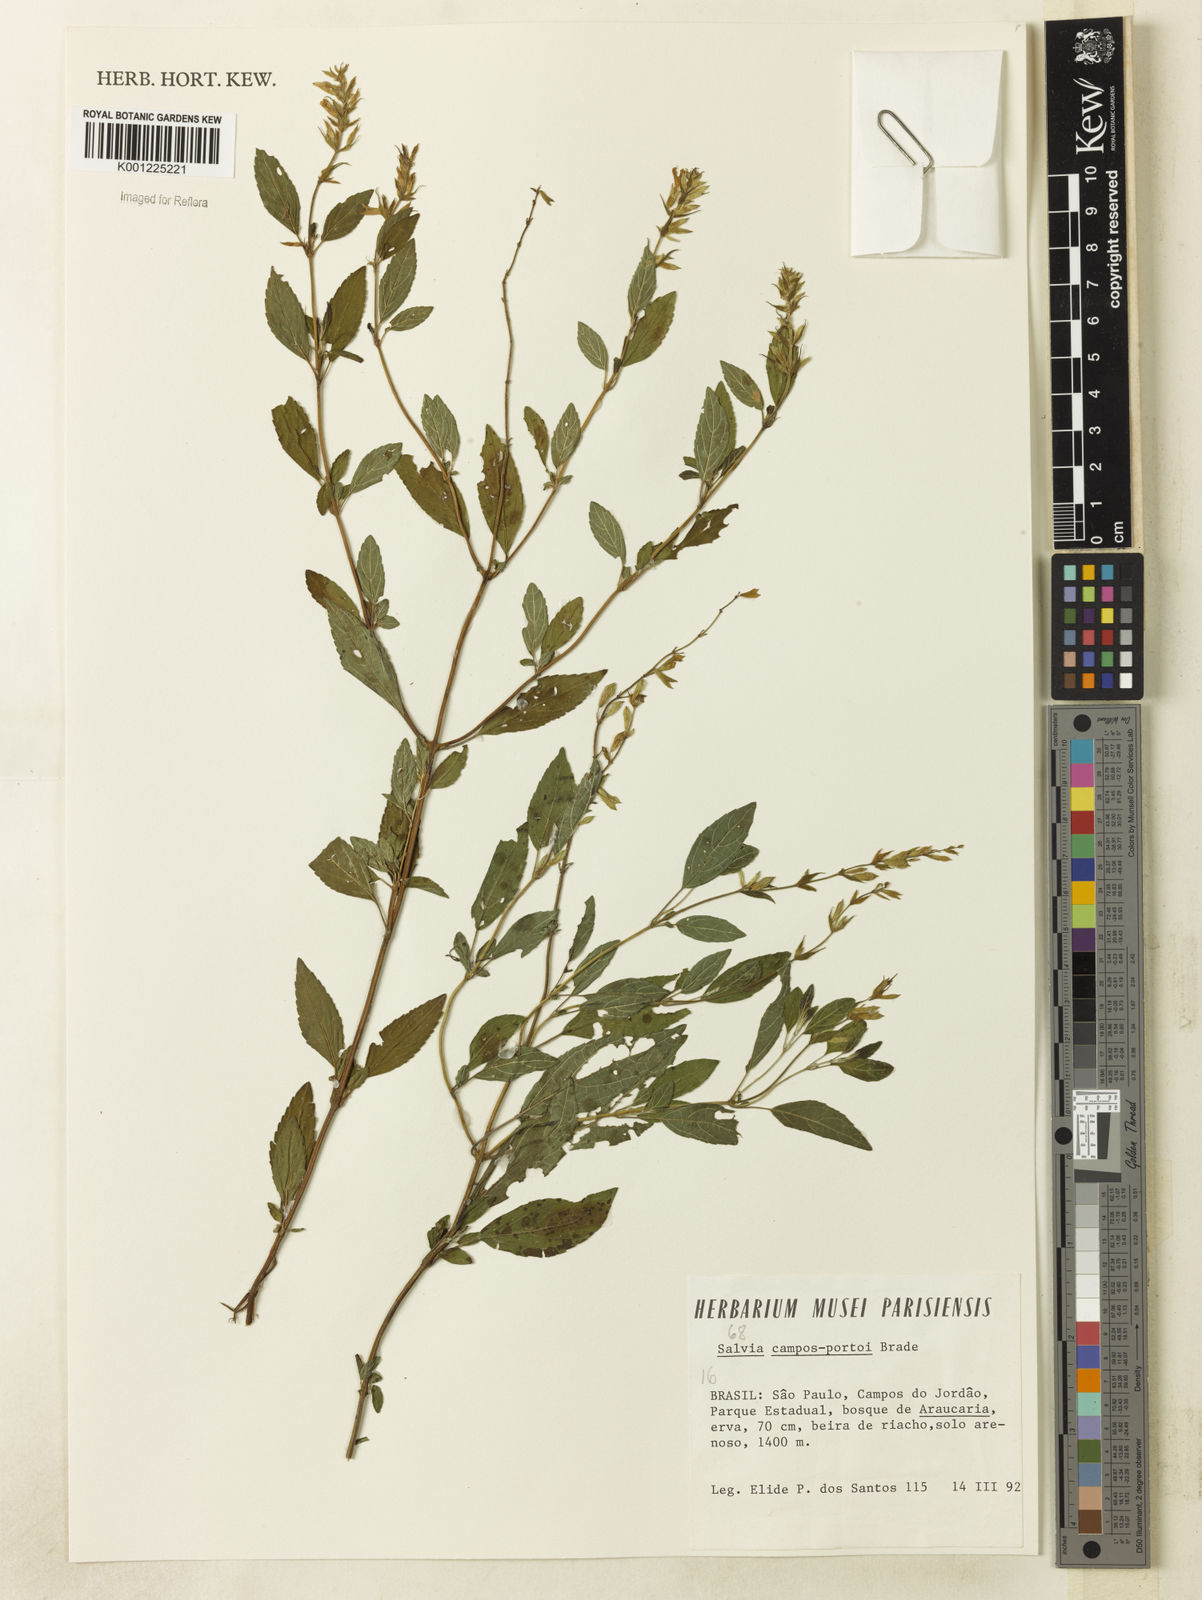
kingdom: Plantae
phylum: Tracheophyta
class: Magnoliopsida
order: Lamiales
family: Lamiaceae
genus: Salvia
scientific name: Salvia arenaria
